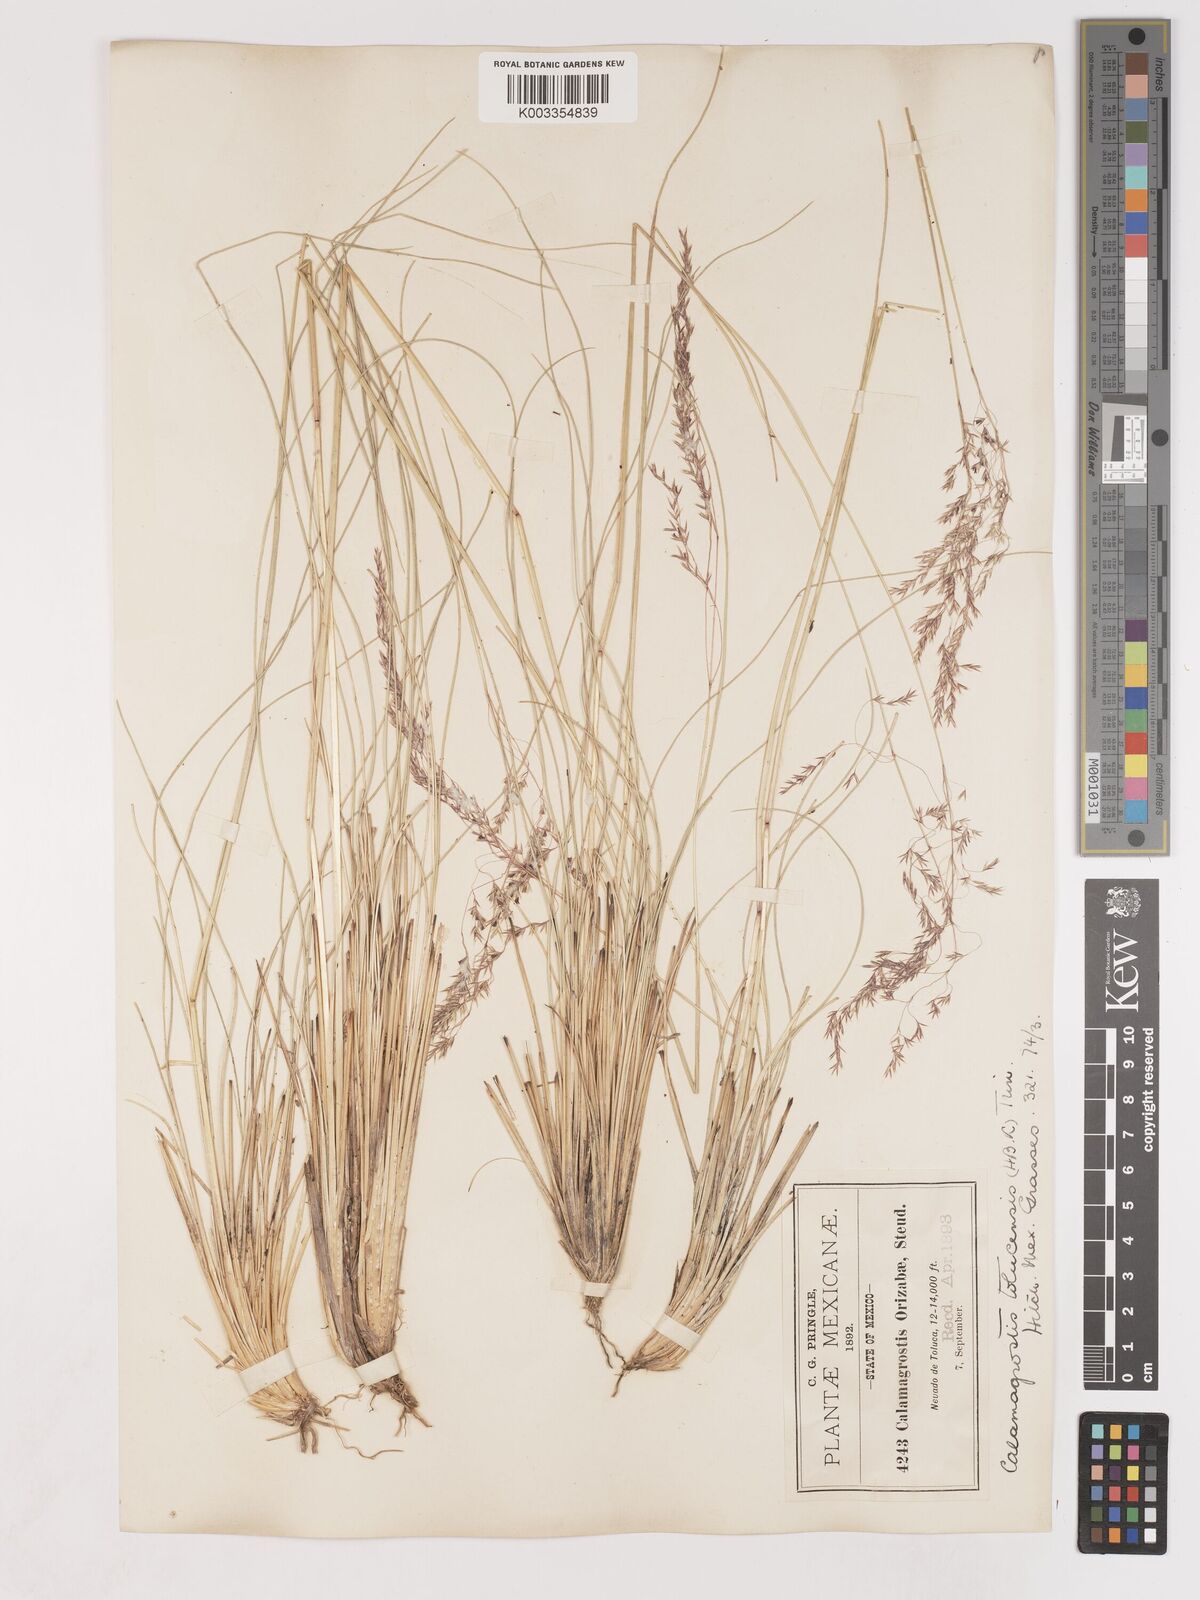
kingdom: Plantae
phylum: Tracheophyta
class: Liliopsida
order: Poales
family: Poaceae
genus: Calamagrostis
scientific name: Calamagrostis
